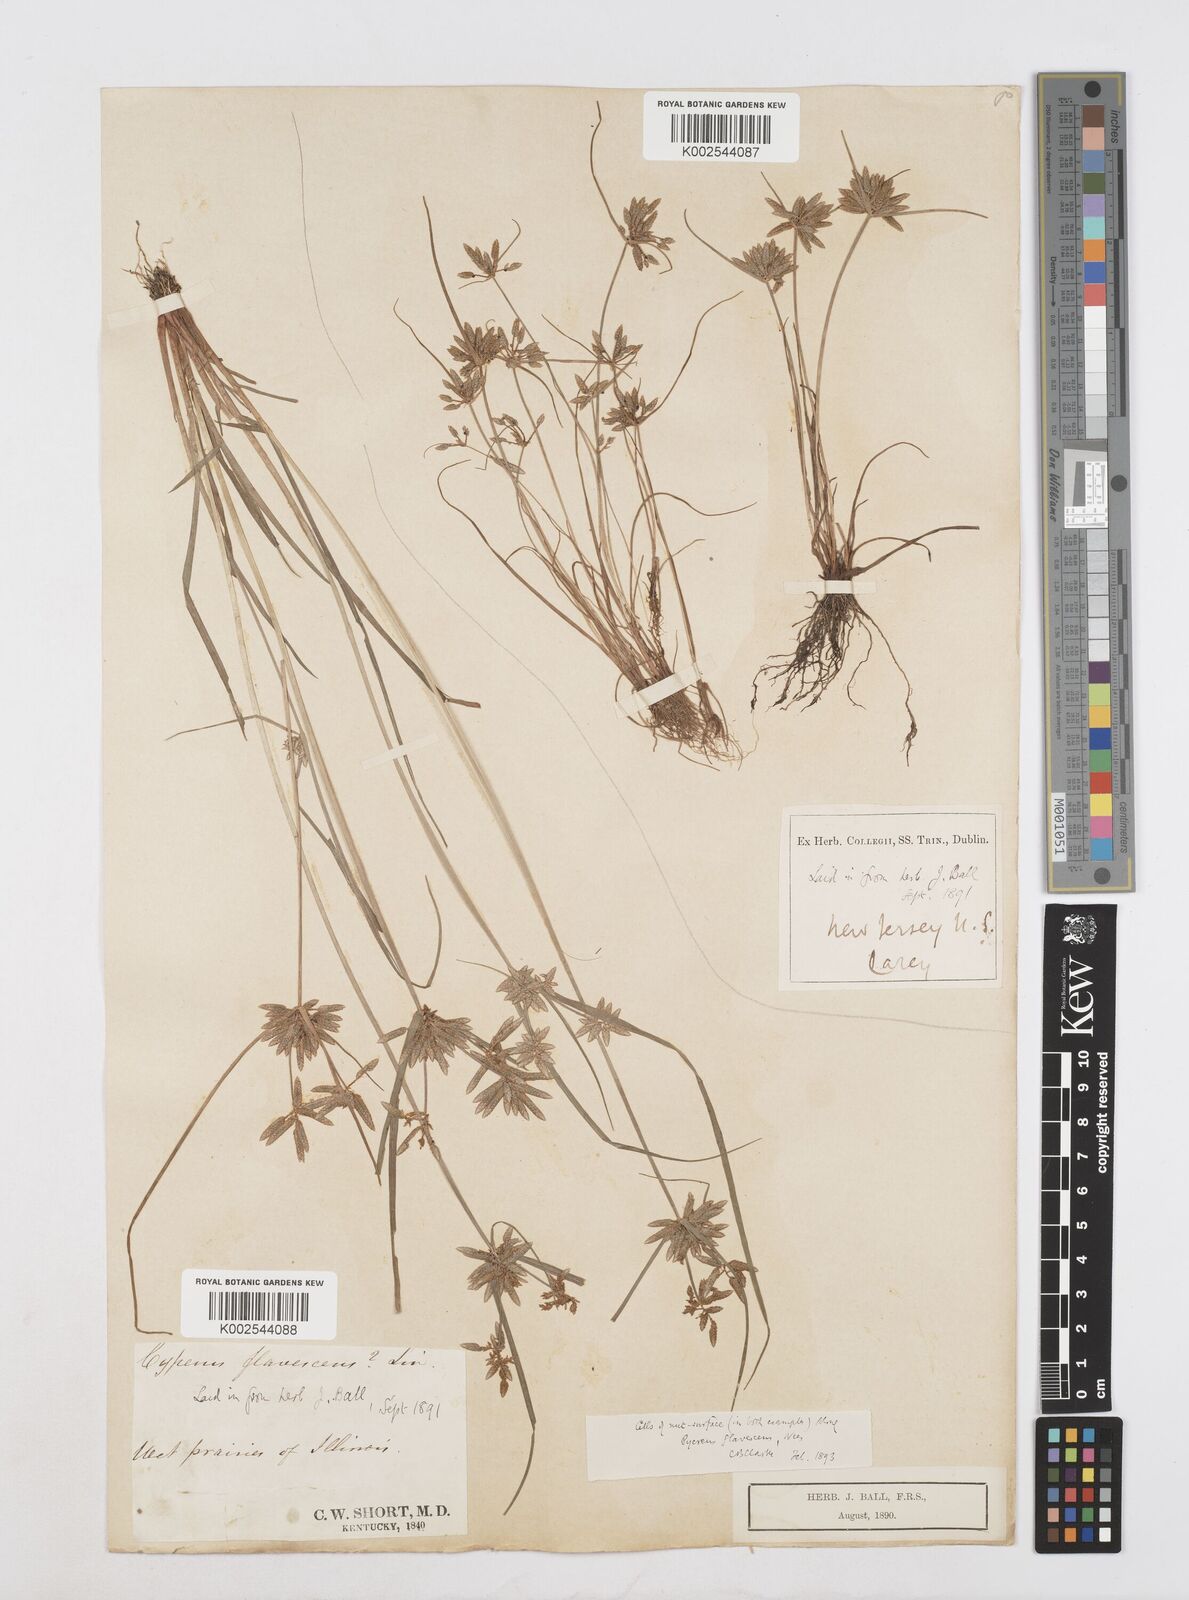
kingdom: Plantae
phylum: Tracheophyta
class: Liliopsida
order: Poales
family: Cyperaceae
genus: Cyperus
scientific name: Cyperus flavescens
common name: Yellow galingale
